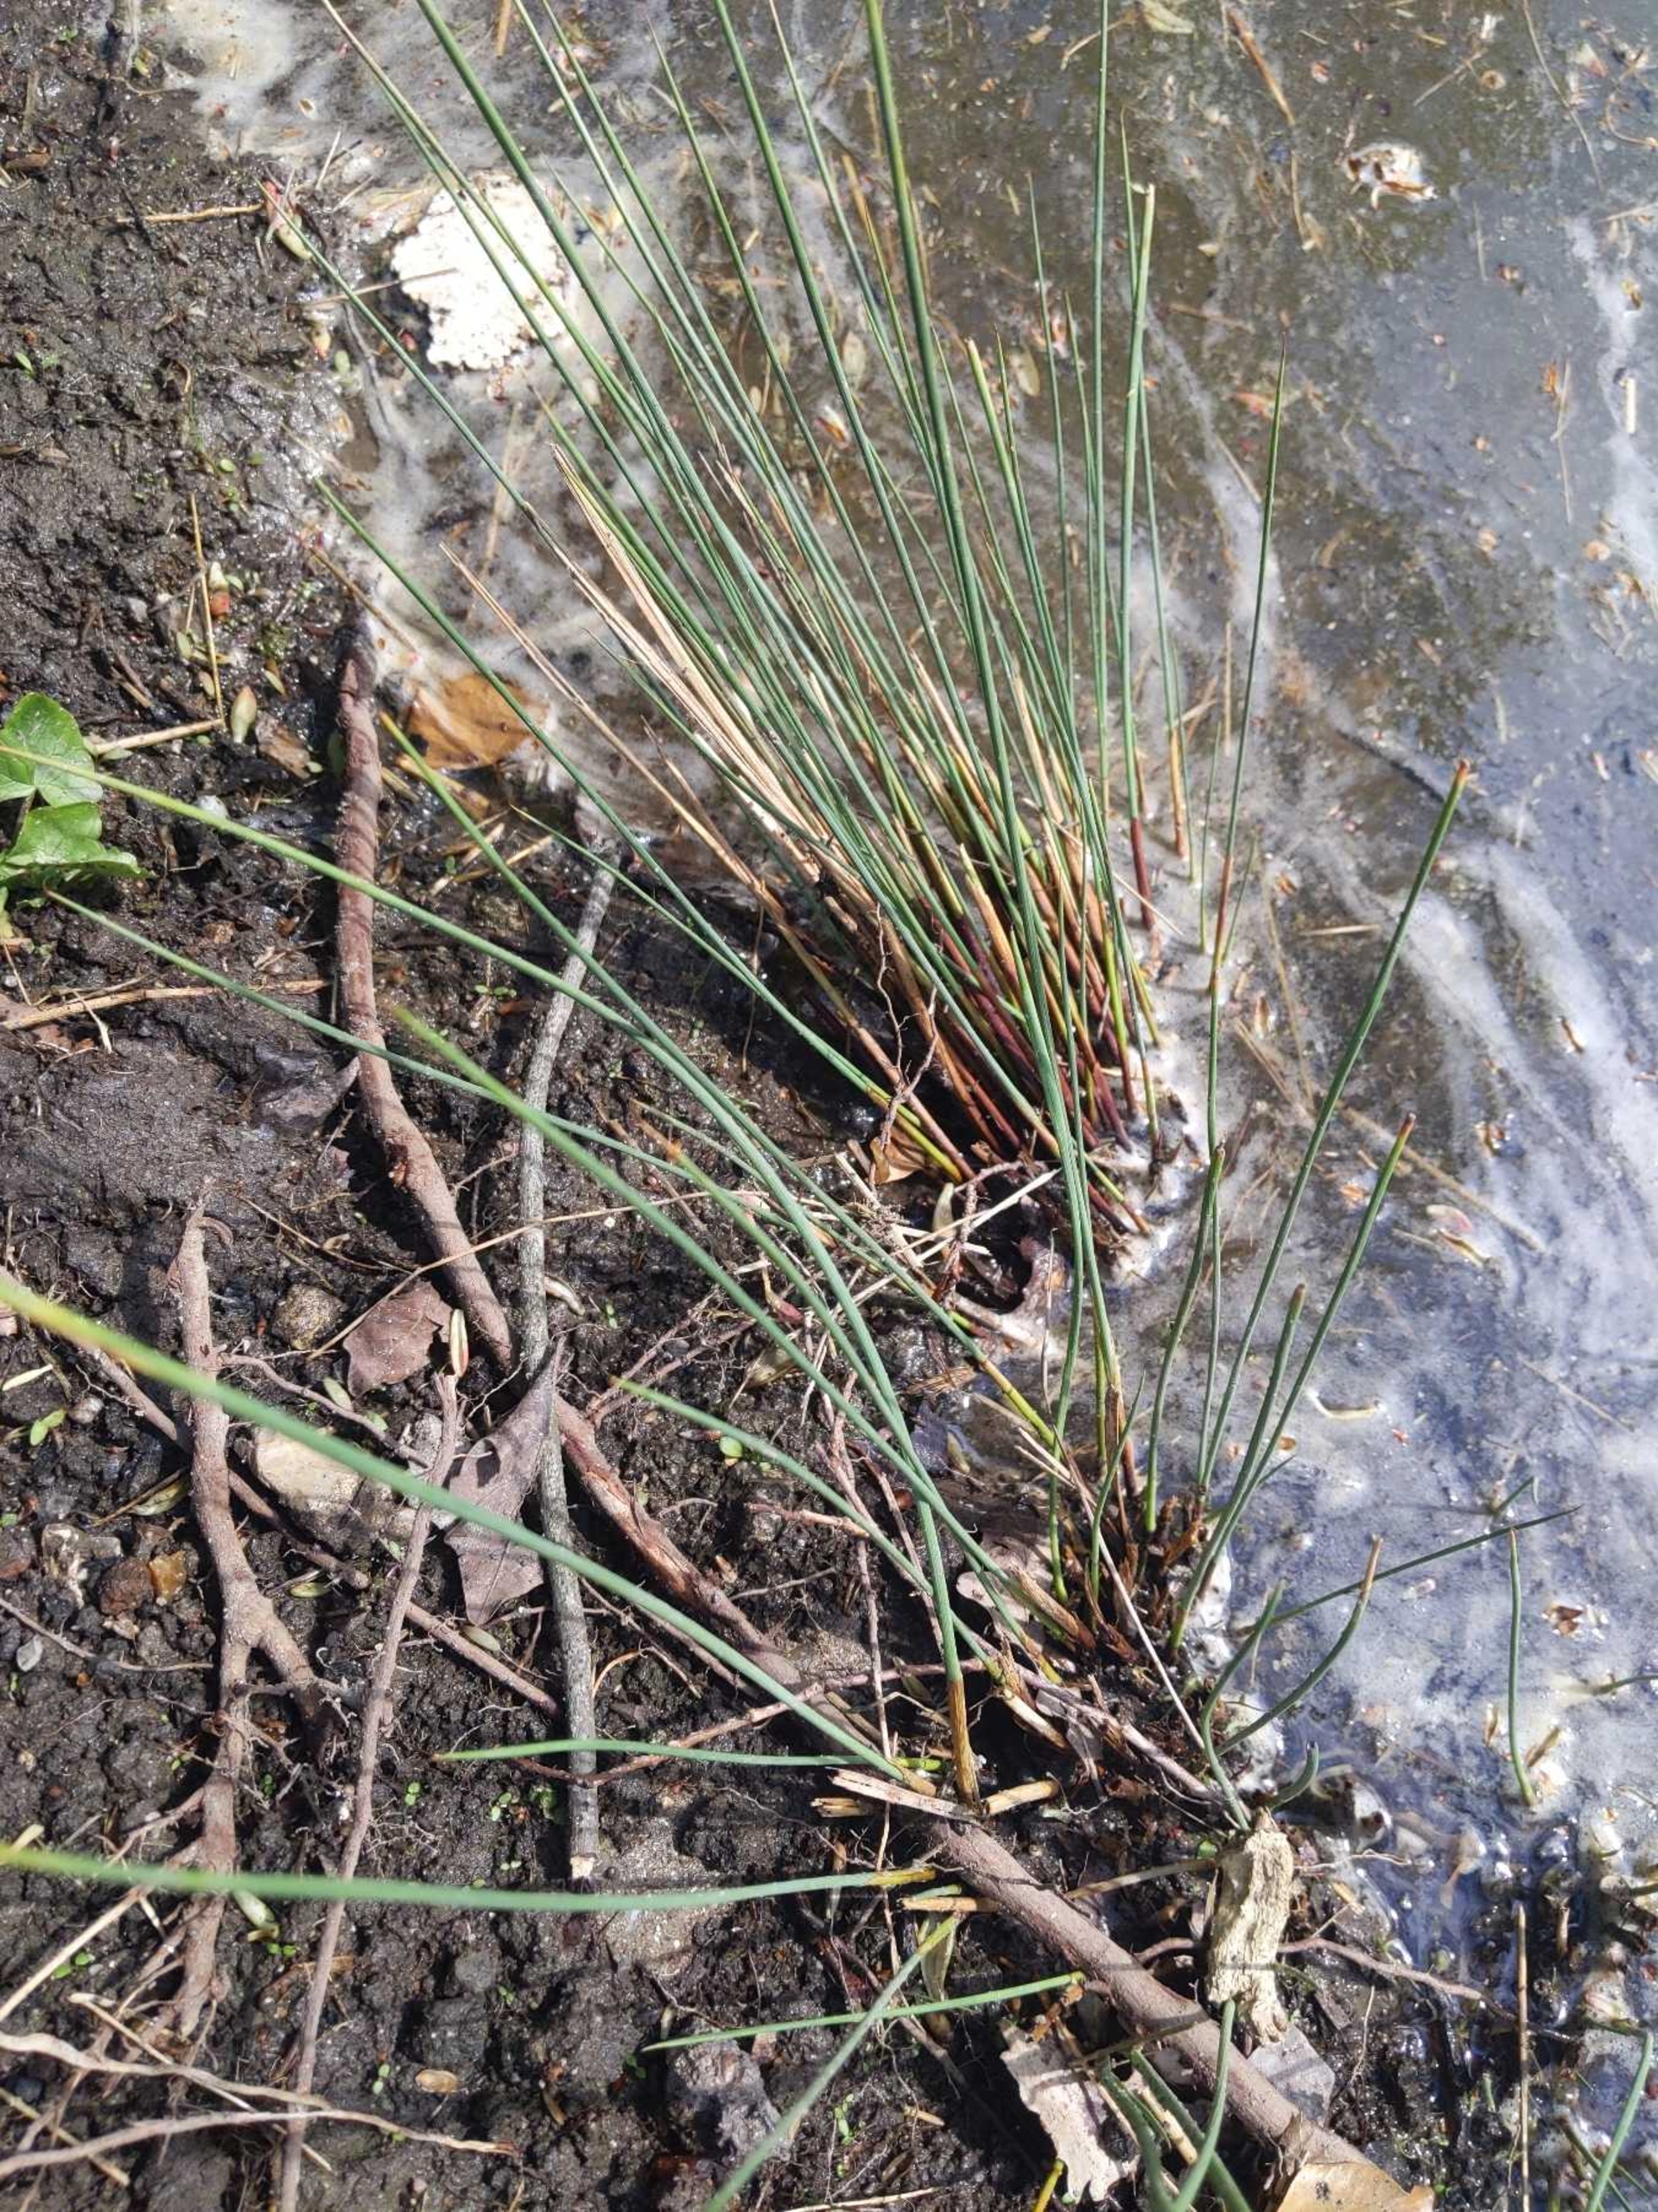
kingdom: Plantae
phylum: Tracheophyta
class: Liliopsida
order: Poales
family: Juncaceae
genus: Juncus
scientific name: Juncus inflexus
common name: Blågrå siv
